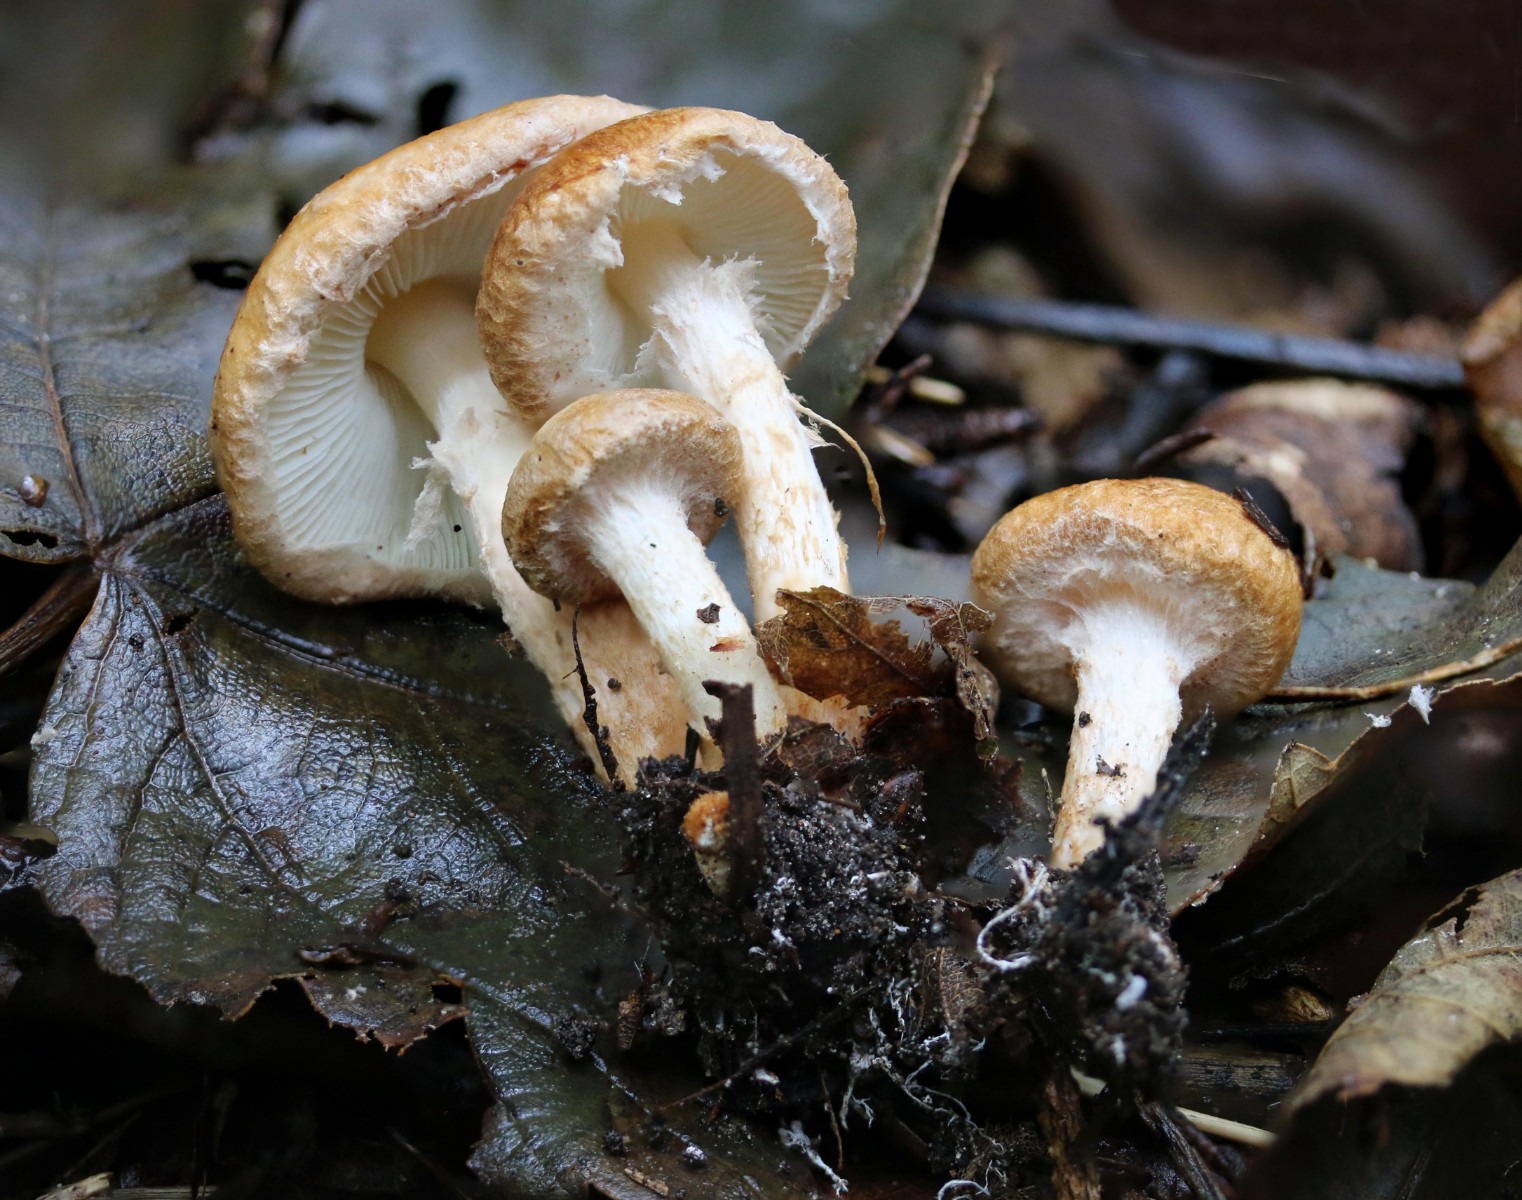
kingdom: Fungi
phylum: Basidiomycota
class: Agaricomycetes
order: Agaricales
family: Agaricaceae
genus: Leucocoprinus
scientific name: Leucocoprinus straminellus
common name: rustbrun parasolhat
